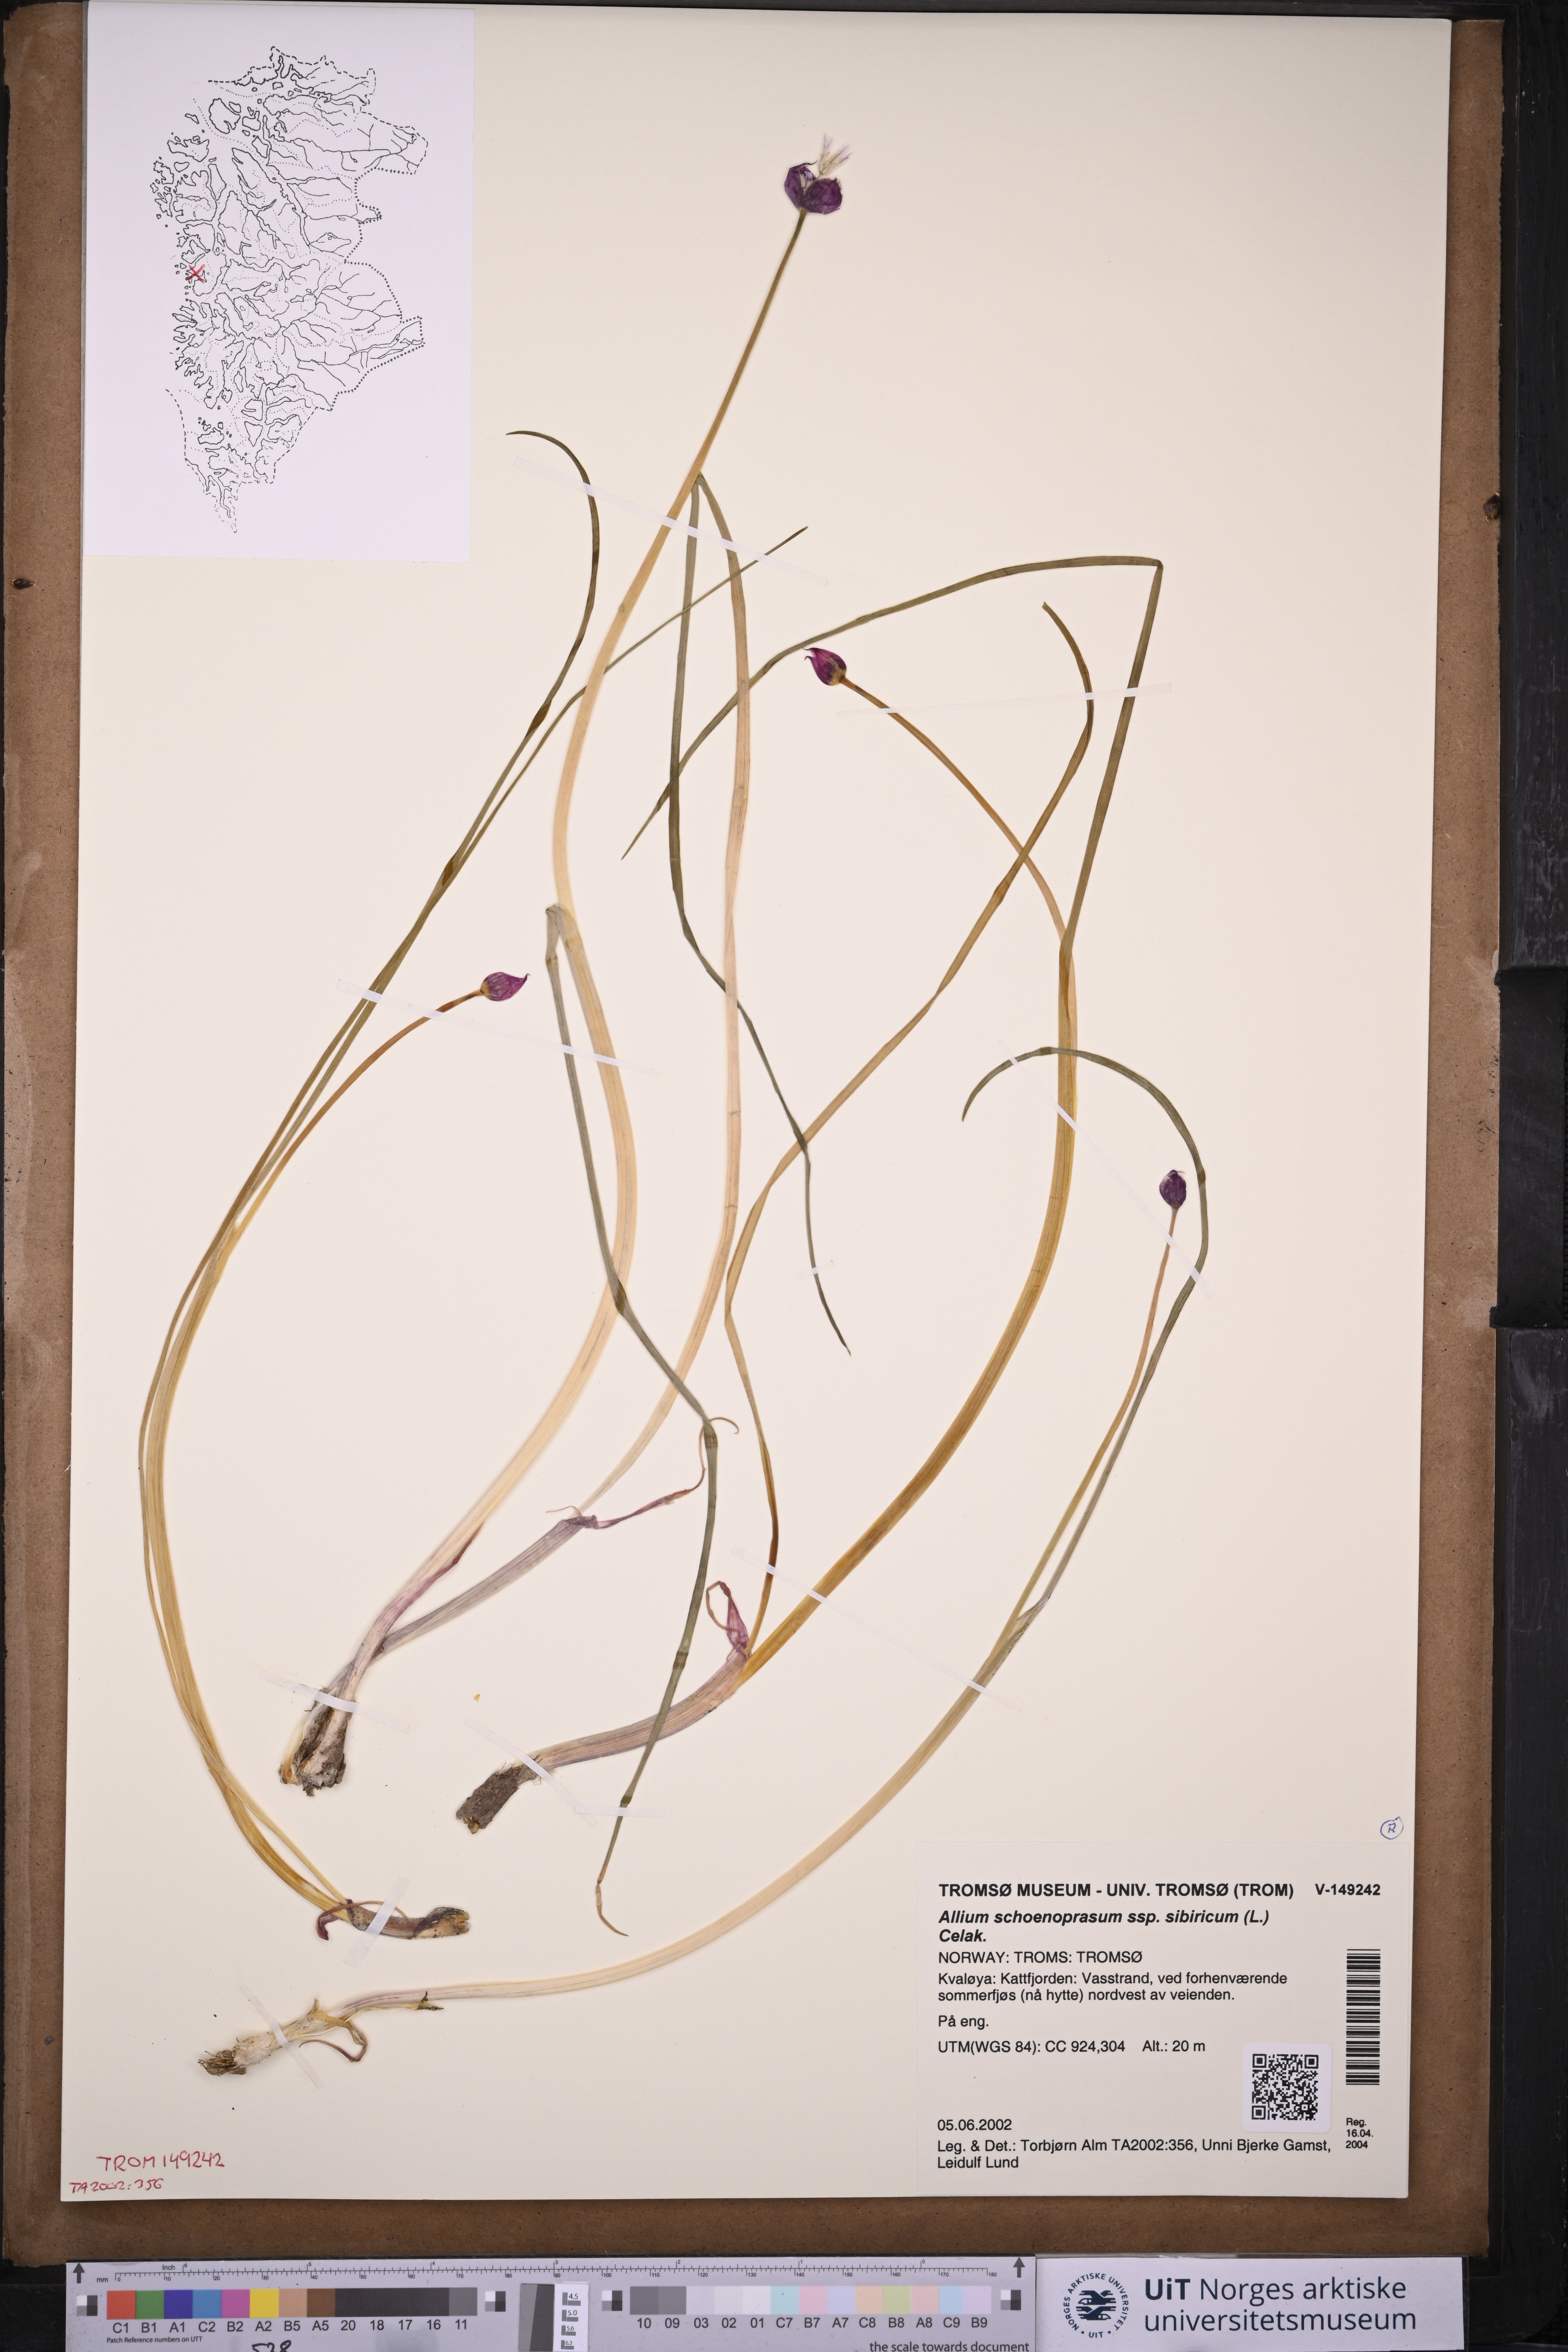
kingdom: Plantae
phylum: Tracheophyta
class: Liliopsida
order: Asparagales
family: Amaryllidaceae
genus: Allium
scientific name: Allium schoenoprasum
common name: Chives
